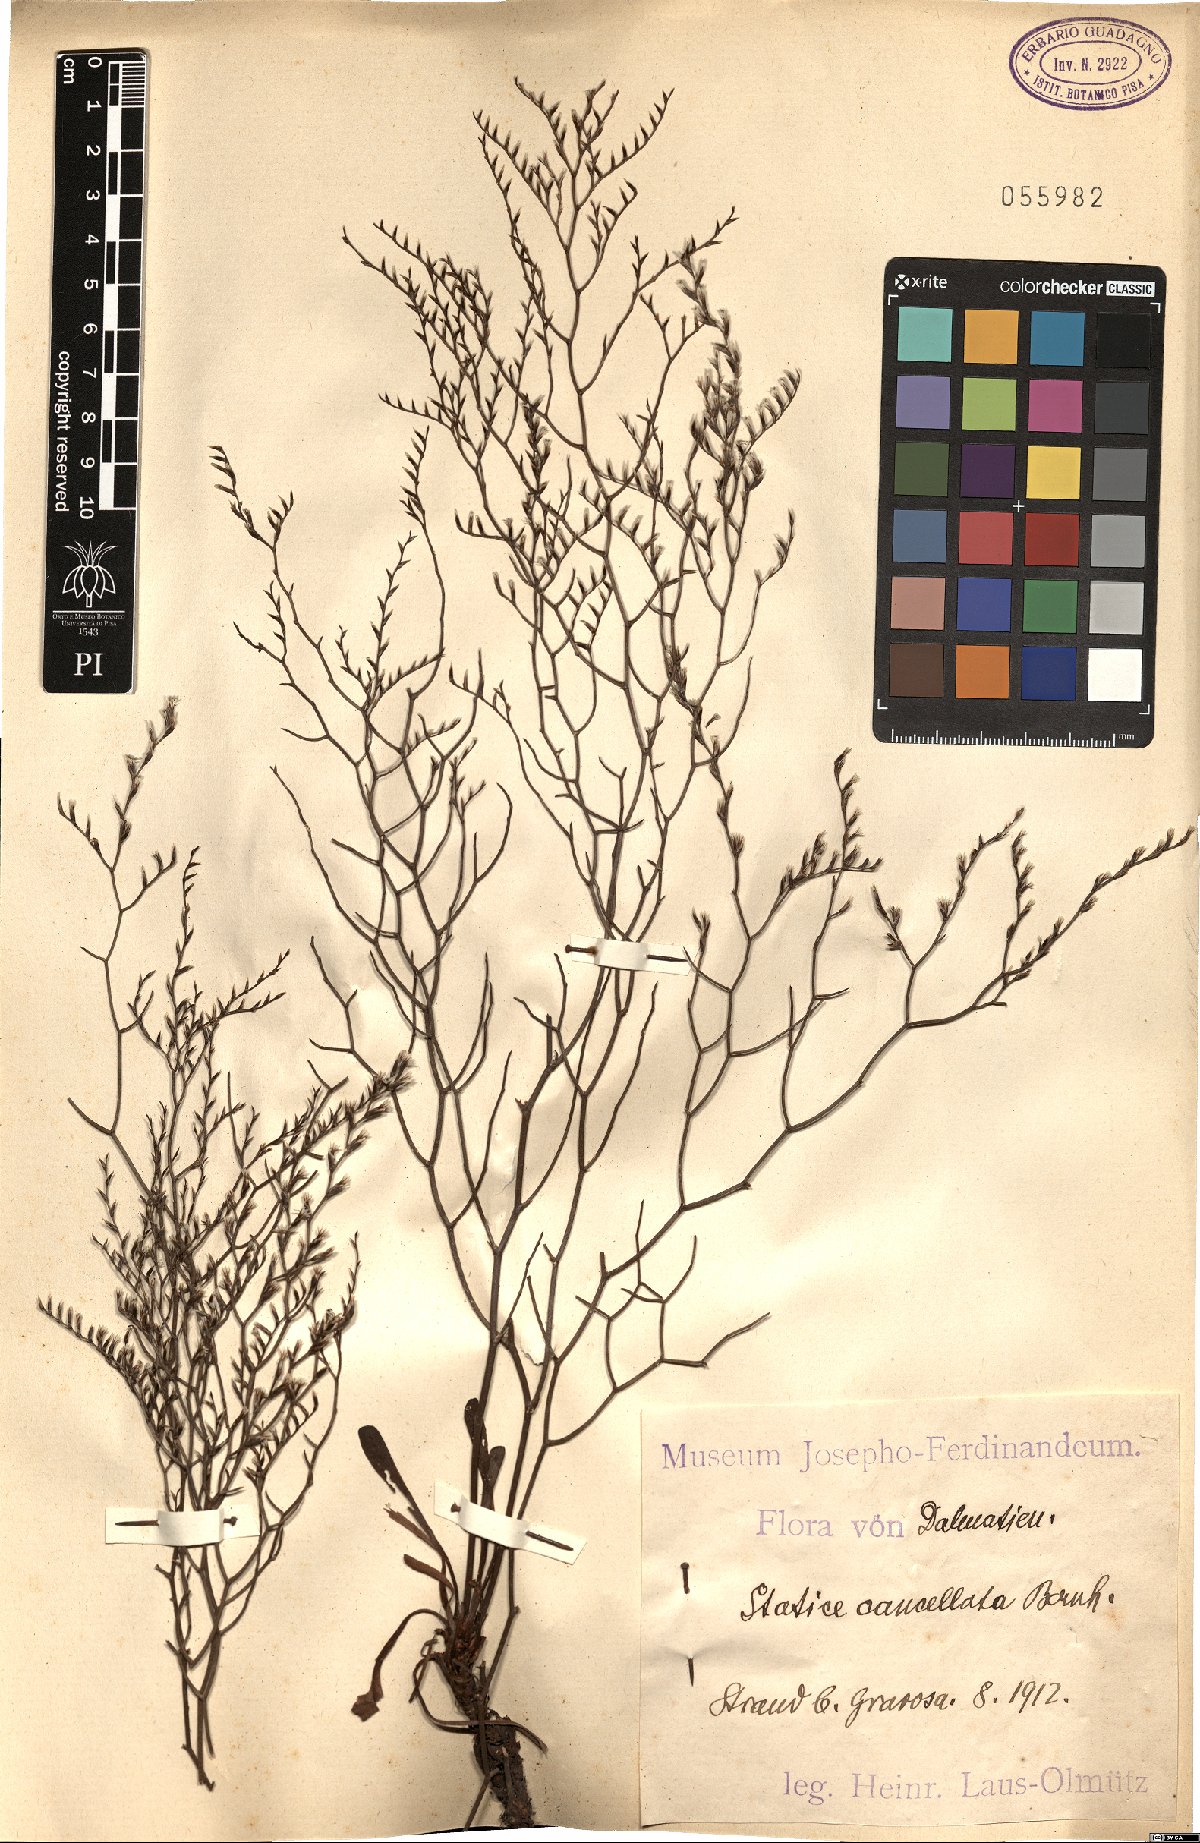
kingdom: Plantae
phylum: Tracheophyta
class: Magnoliopsida
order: Caryophyllales
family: Plumbaginaceae
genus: Limonium
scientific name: Limonium cancellatum
